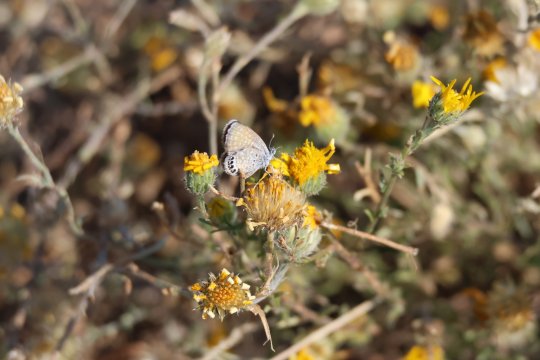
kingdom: Animalia
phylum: Arthropoda
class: Insecta
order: Lepidoptera
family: Lycaenidae
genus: Brephidium
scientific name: Brephidium exilis
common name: Western Pygmy-Blue
